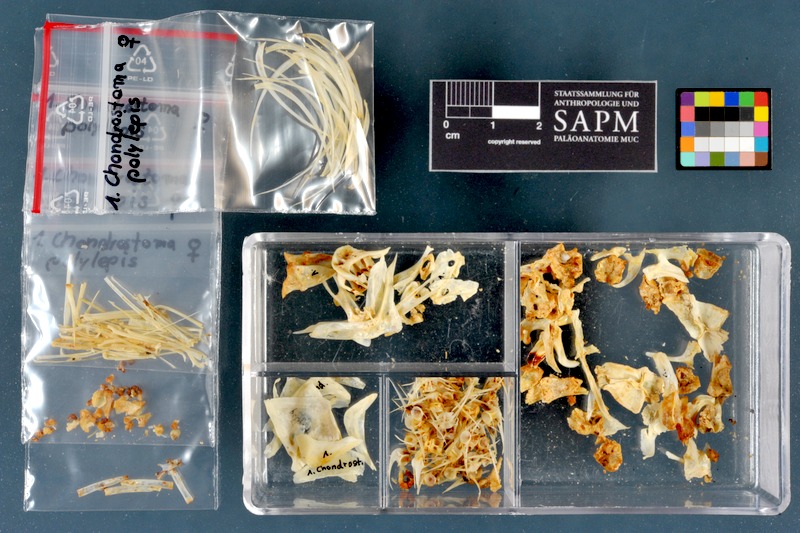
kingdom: Animalia
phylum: Chordata
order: Cypriniformes
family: Cyprinidae
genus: Pseudochondrostoma
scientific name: Pseudochondrostoma polylepis
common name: Iberian nase
